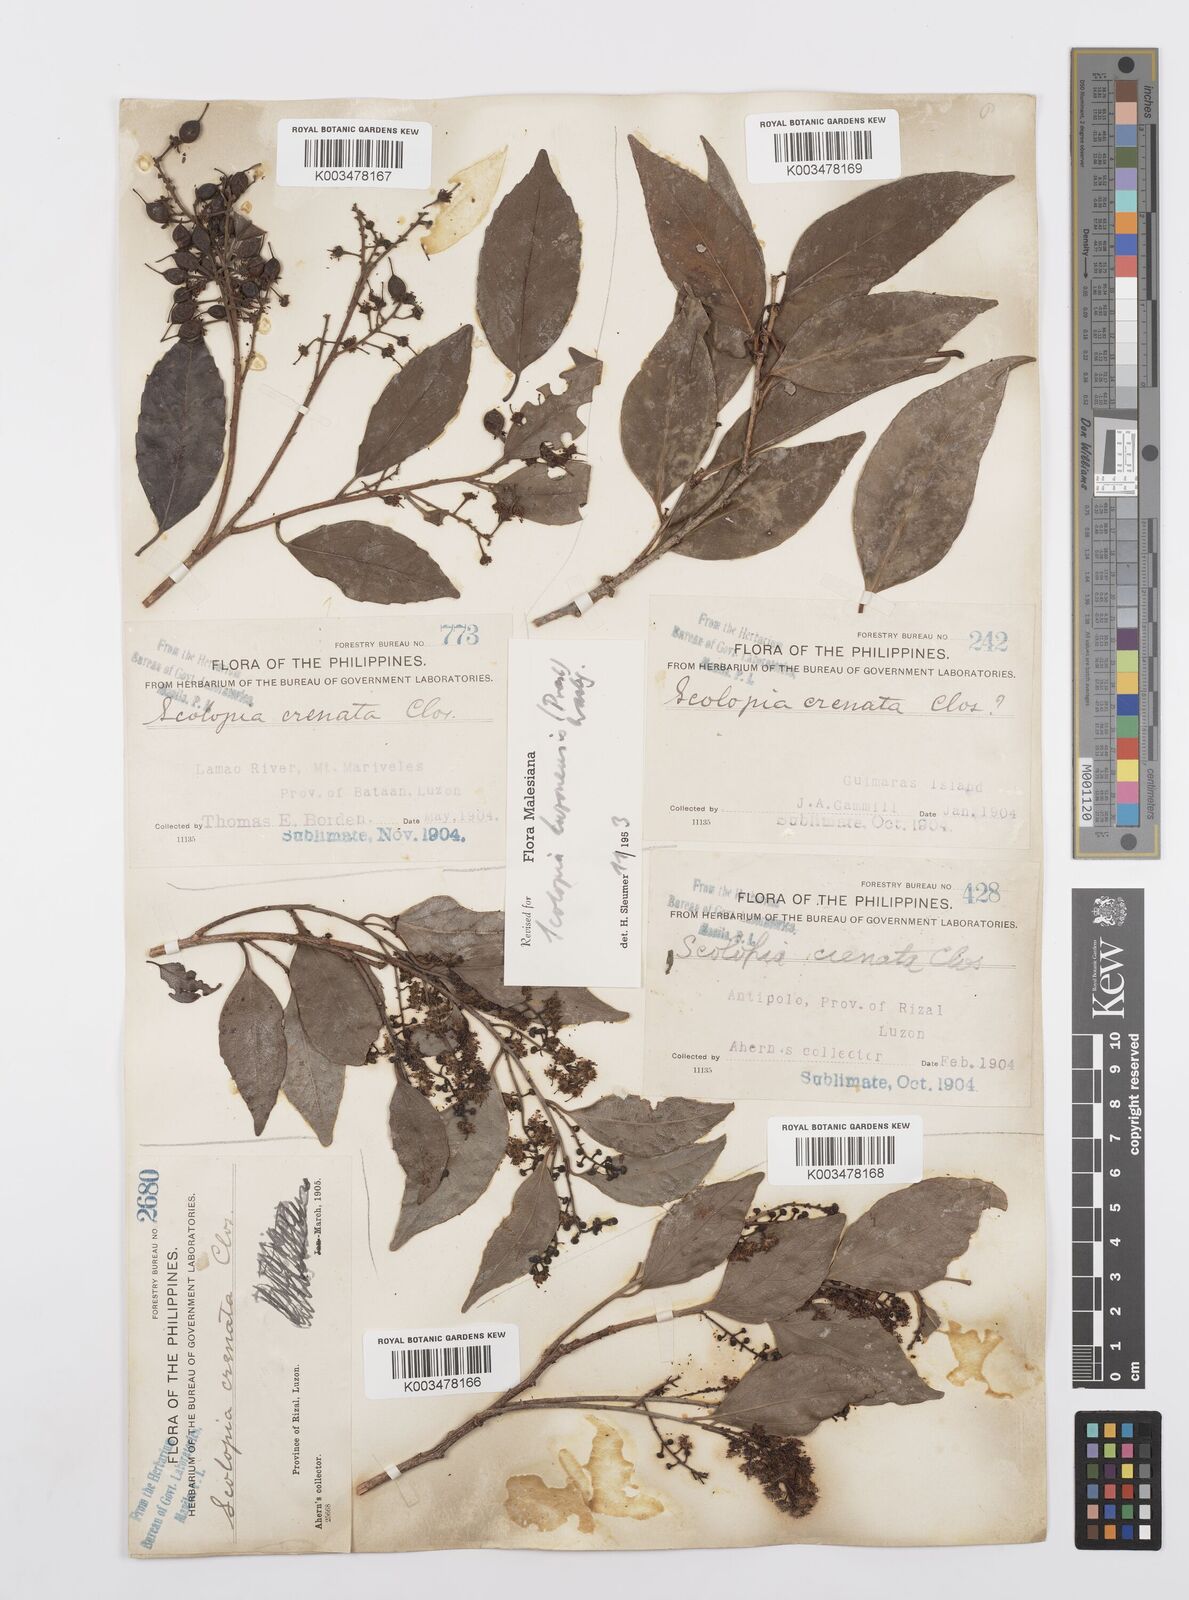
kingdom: Plantae
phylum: Tracheophyta
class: Magnoliopsida
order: Malpighiales
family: Salicaceae
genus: Scolopia
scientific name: Scolopia luzonensis
